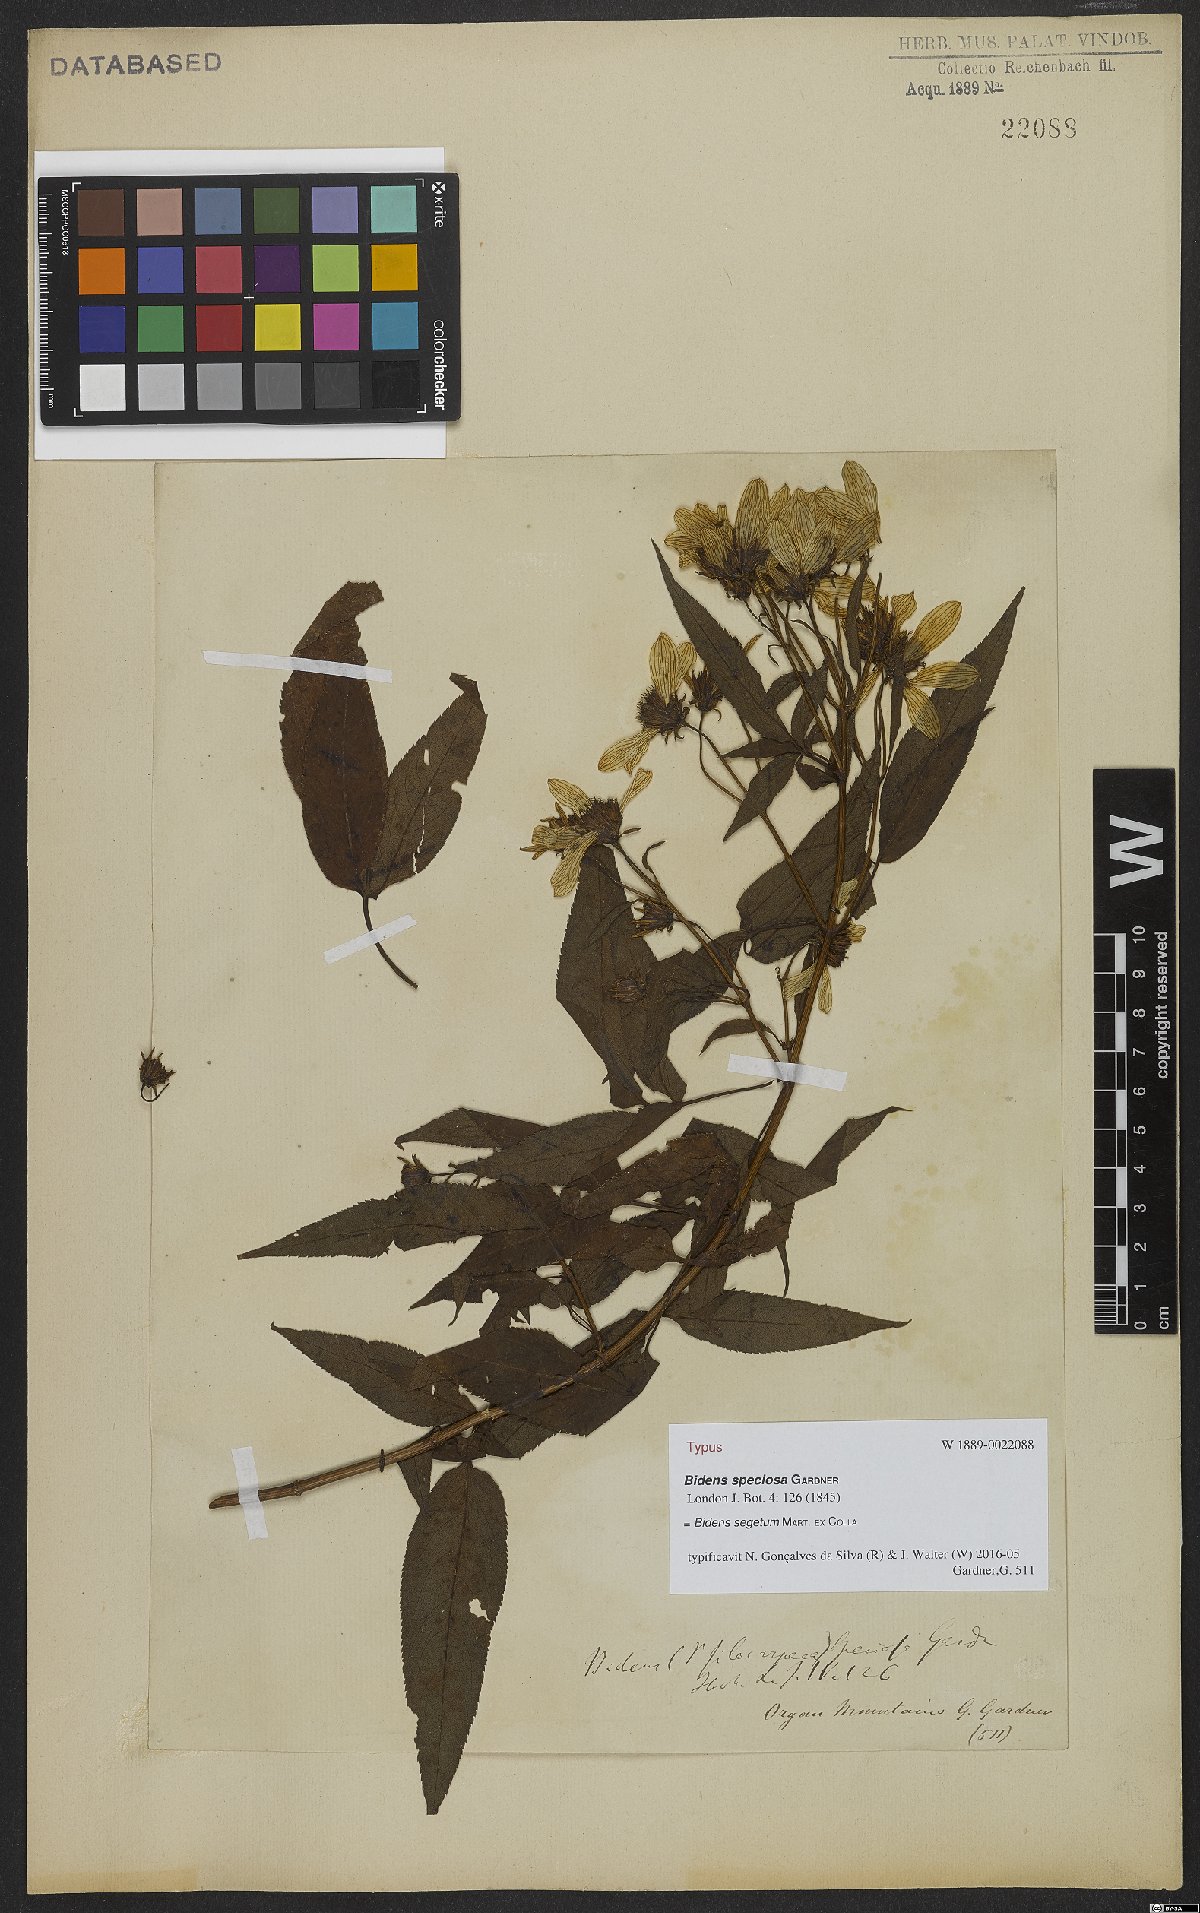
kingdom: Plantae
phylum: Tracheophyta
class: Magnoliopsida
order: Asterales
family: Asteraceae
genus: Bidens
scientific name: Bidens segetum
